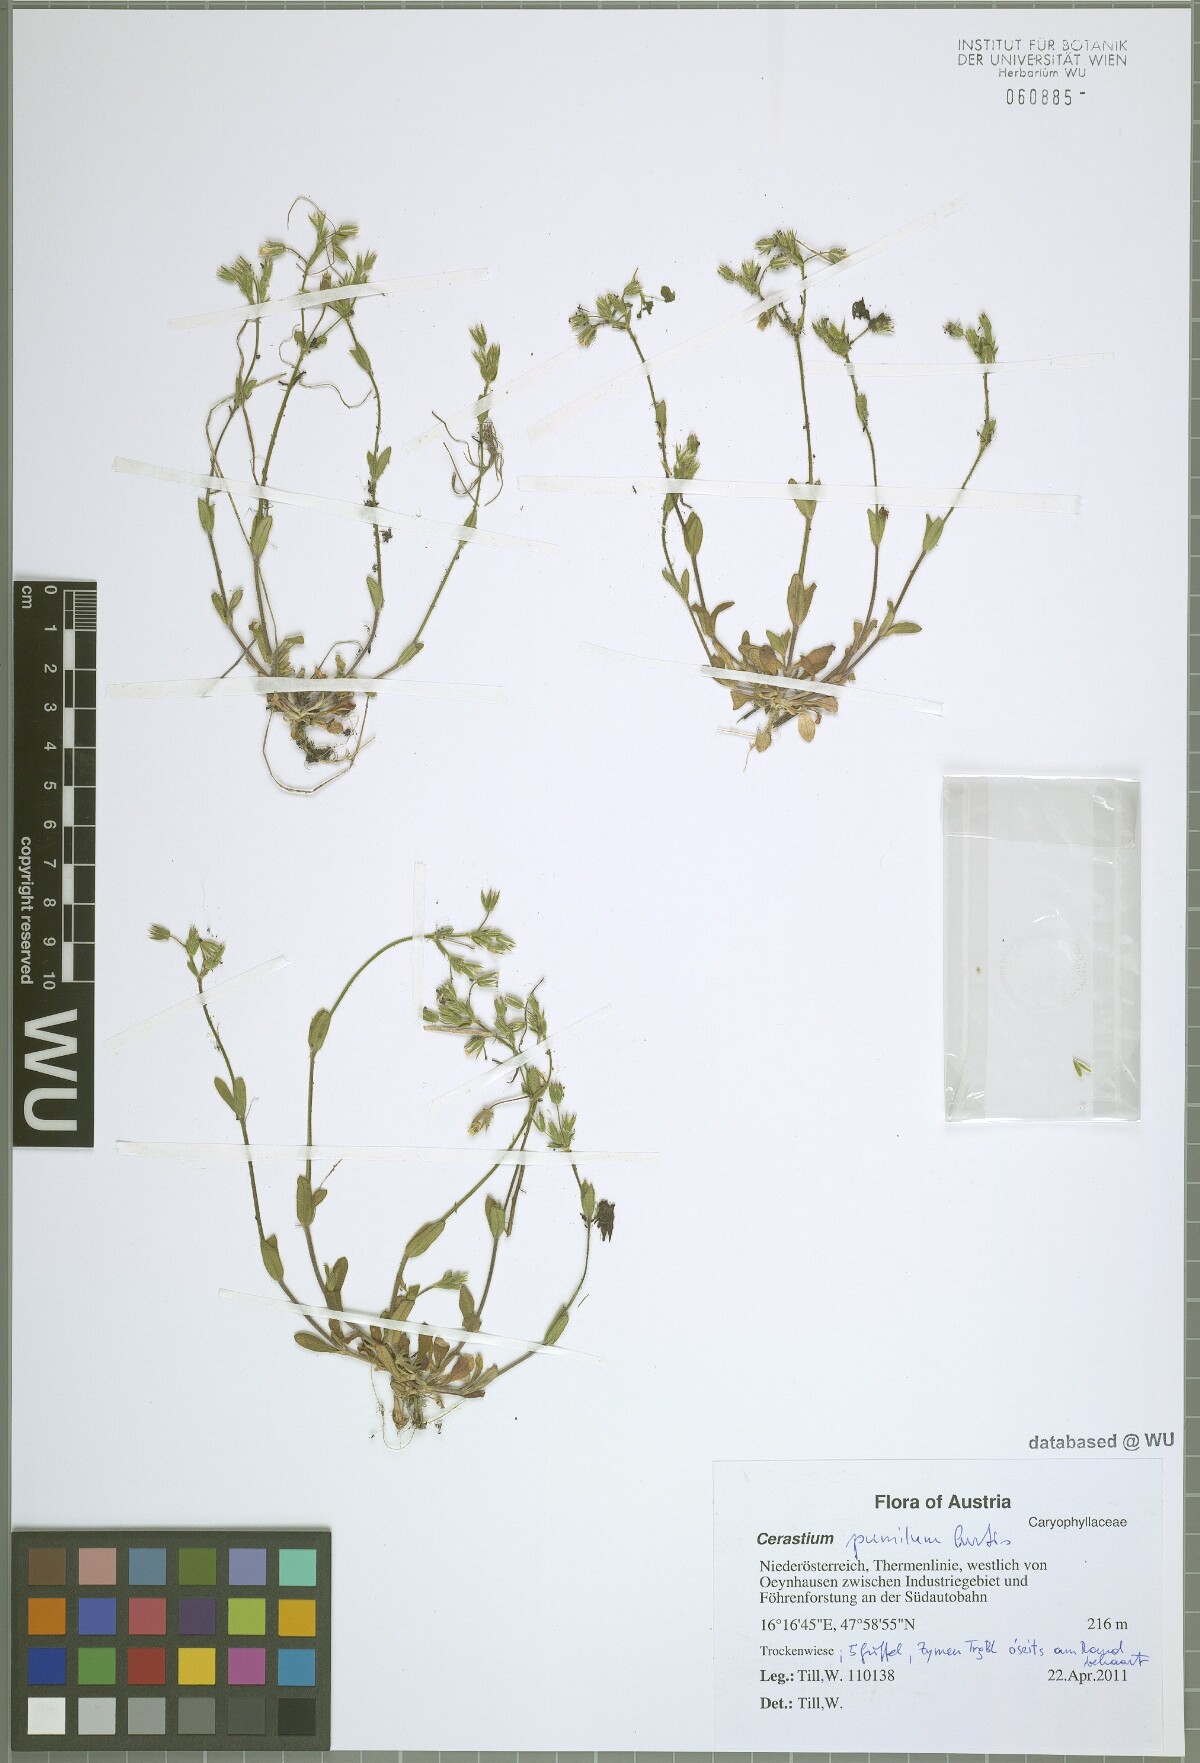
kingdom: Plantae
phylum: Tracheophyta
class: Magnoliopsida
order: Caryophyllales
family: Caryophyllaceae
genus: Cerastium
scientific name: Cerastium pumilum
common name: Dwarf mouse-ear
